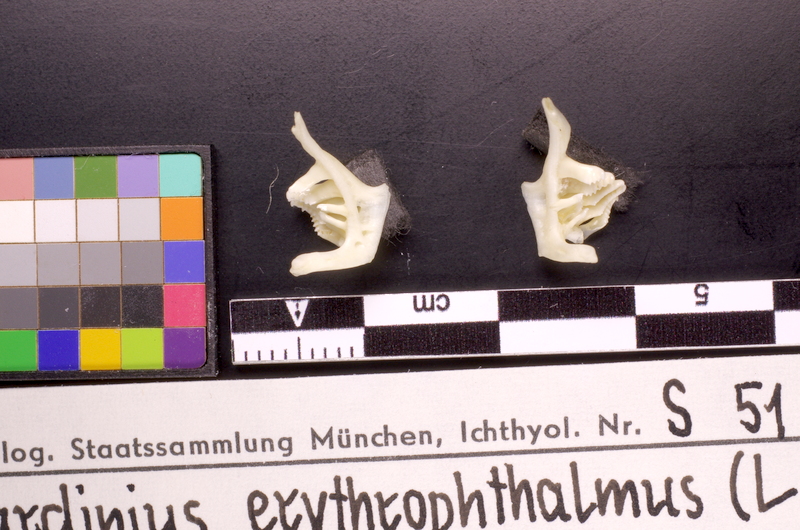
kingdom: Animalia
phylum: Chordata
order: Cypriniformes
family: Cyprinidae
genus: Scardinius
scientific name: Scardinius erythrophthalmus
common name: Rudd
